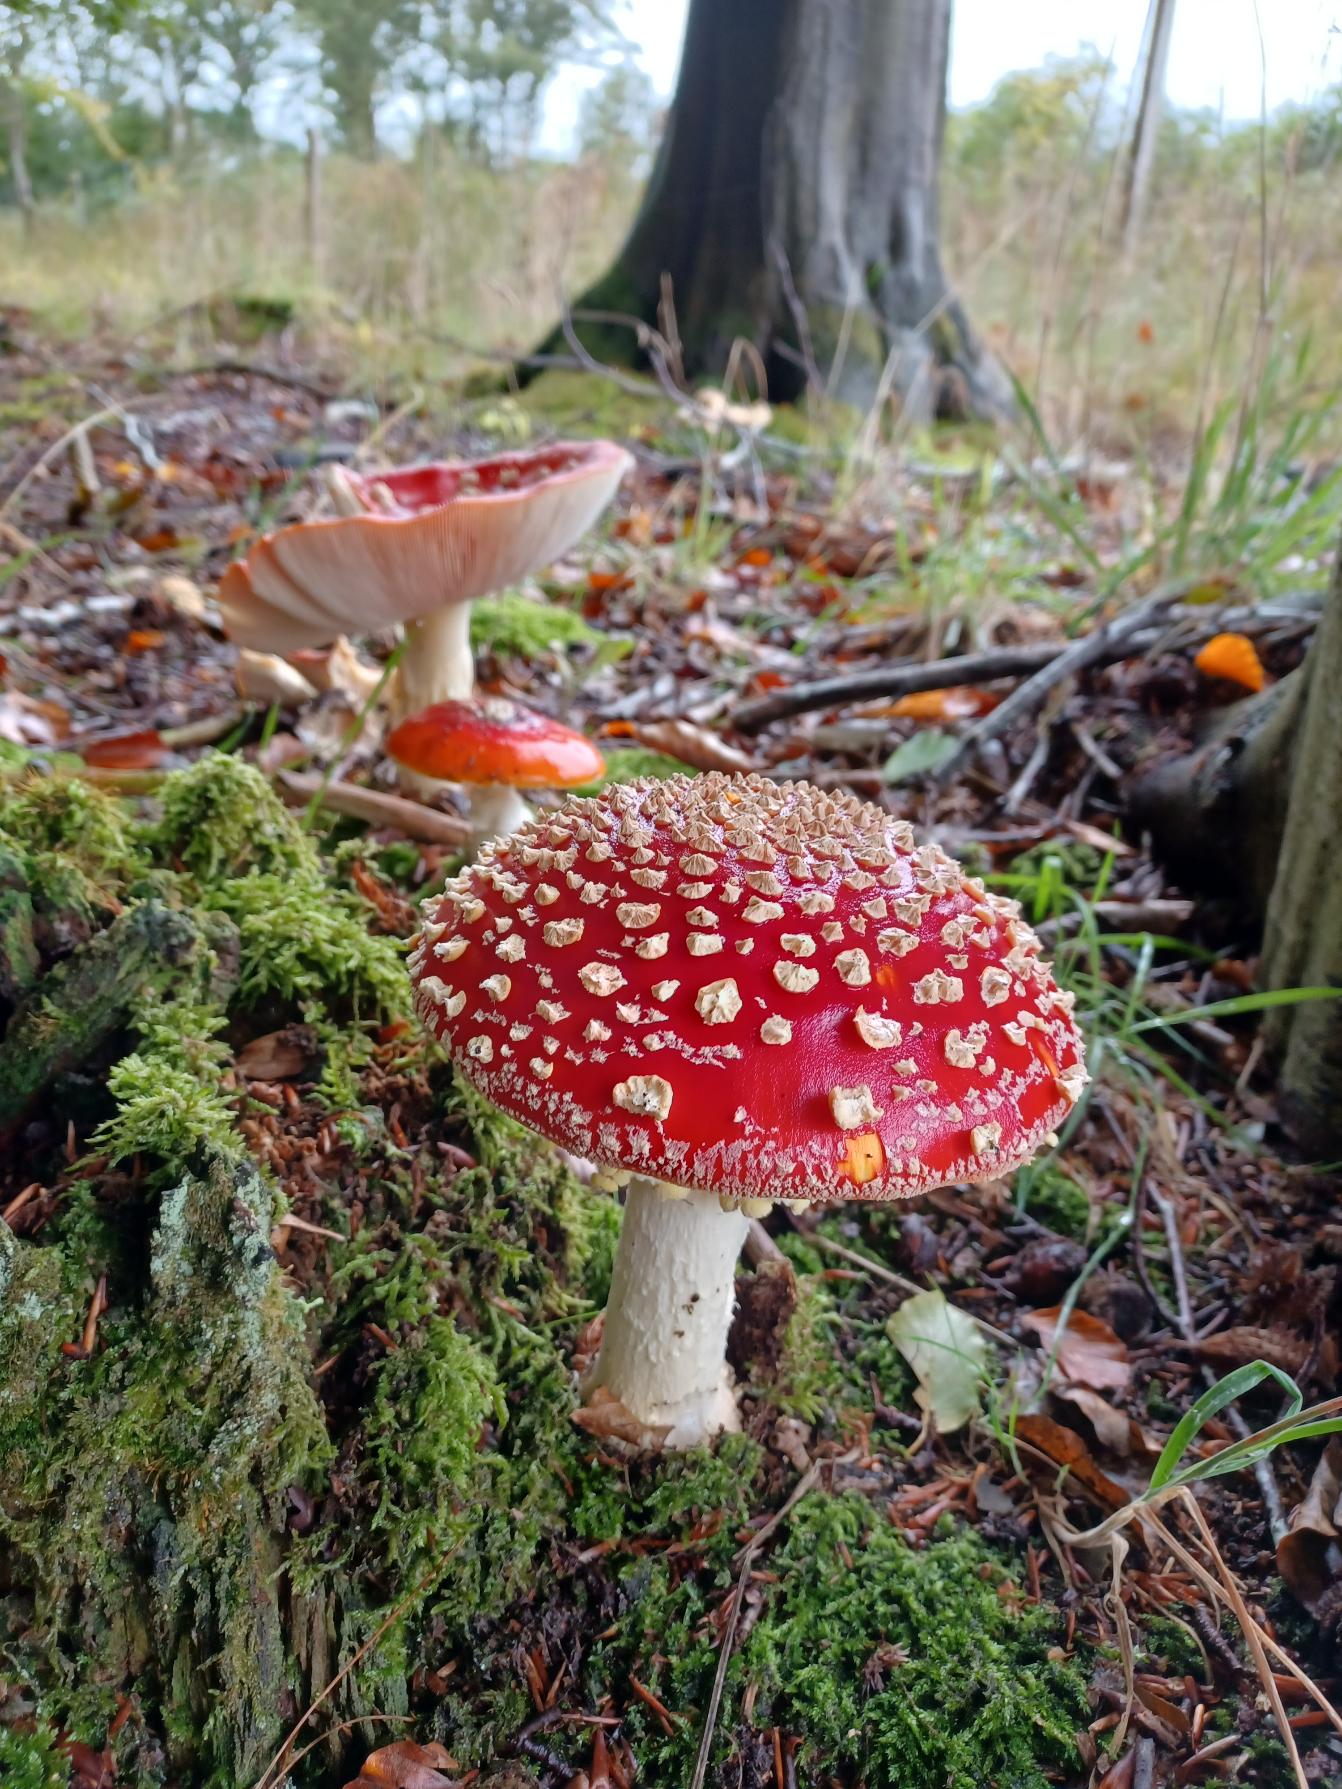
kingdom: Fungi
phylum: Basidiomycota
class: Agaricomycetes
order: Agaricales
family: Amanitaceae
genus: Amanita
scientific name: Amanita muscaria
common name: Rød fluesvamp
